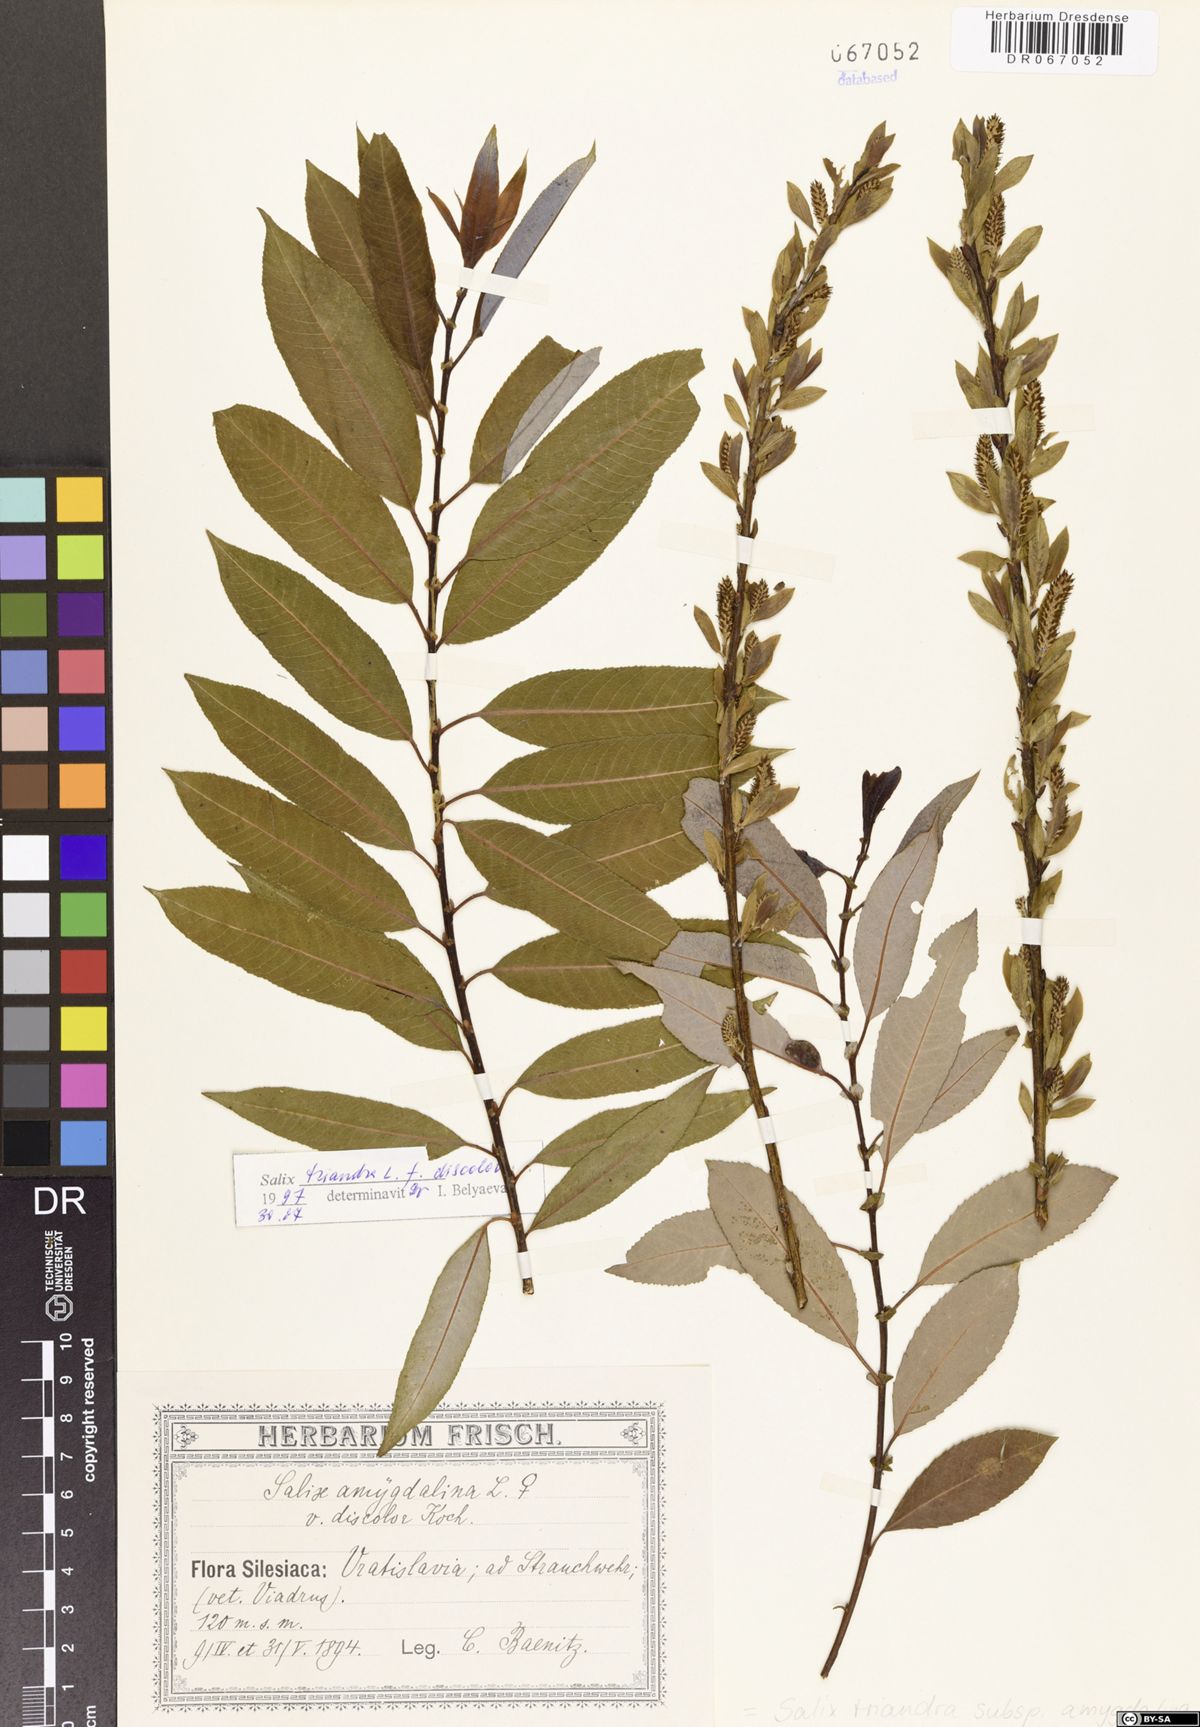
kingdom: Plantae
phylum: Tracheophyta
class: Magnoliopsida
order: Malpighiales
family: Salicaceae
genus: Salix
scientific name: Salix triandra
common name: Almond willow
